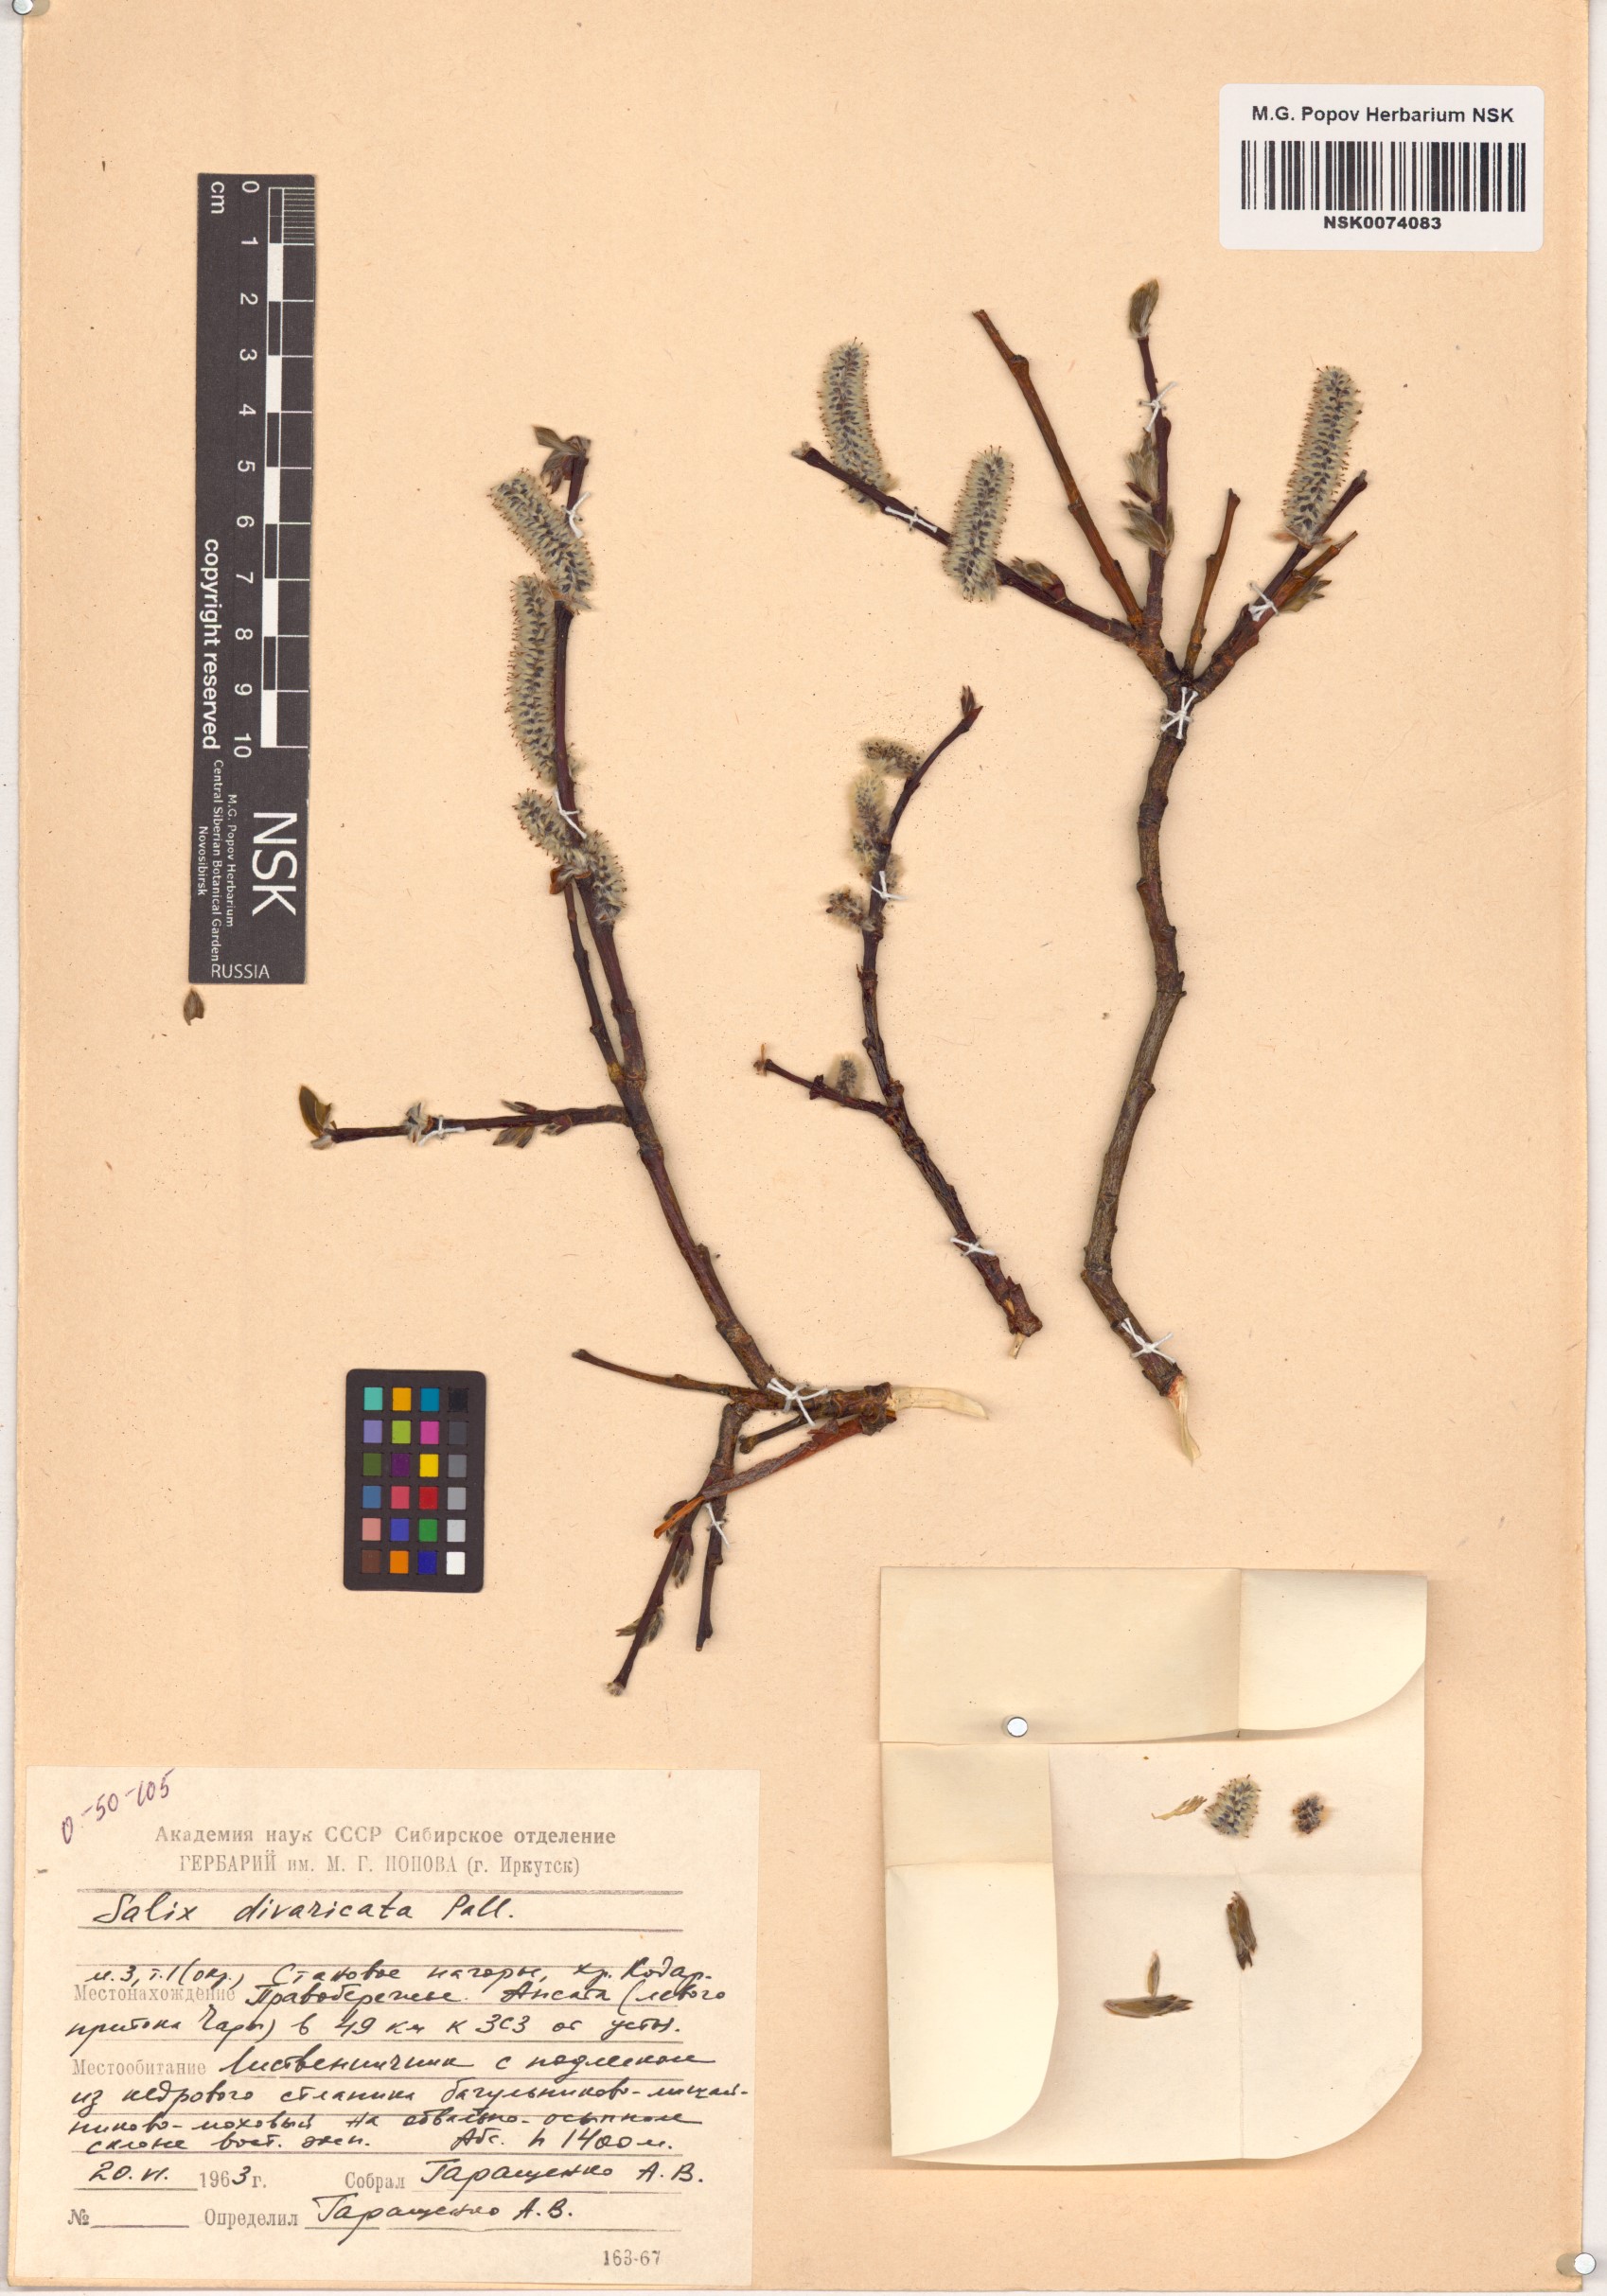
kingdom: Plantae
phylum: Tracheophyta
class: Magnoliopsida
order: Malpighiales
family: Salicaceae
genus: Salix
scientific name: Salix divaricata
